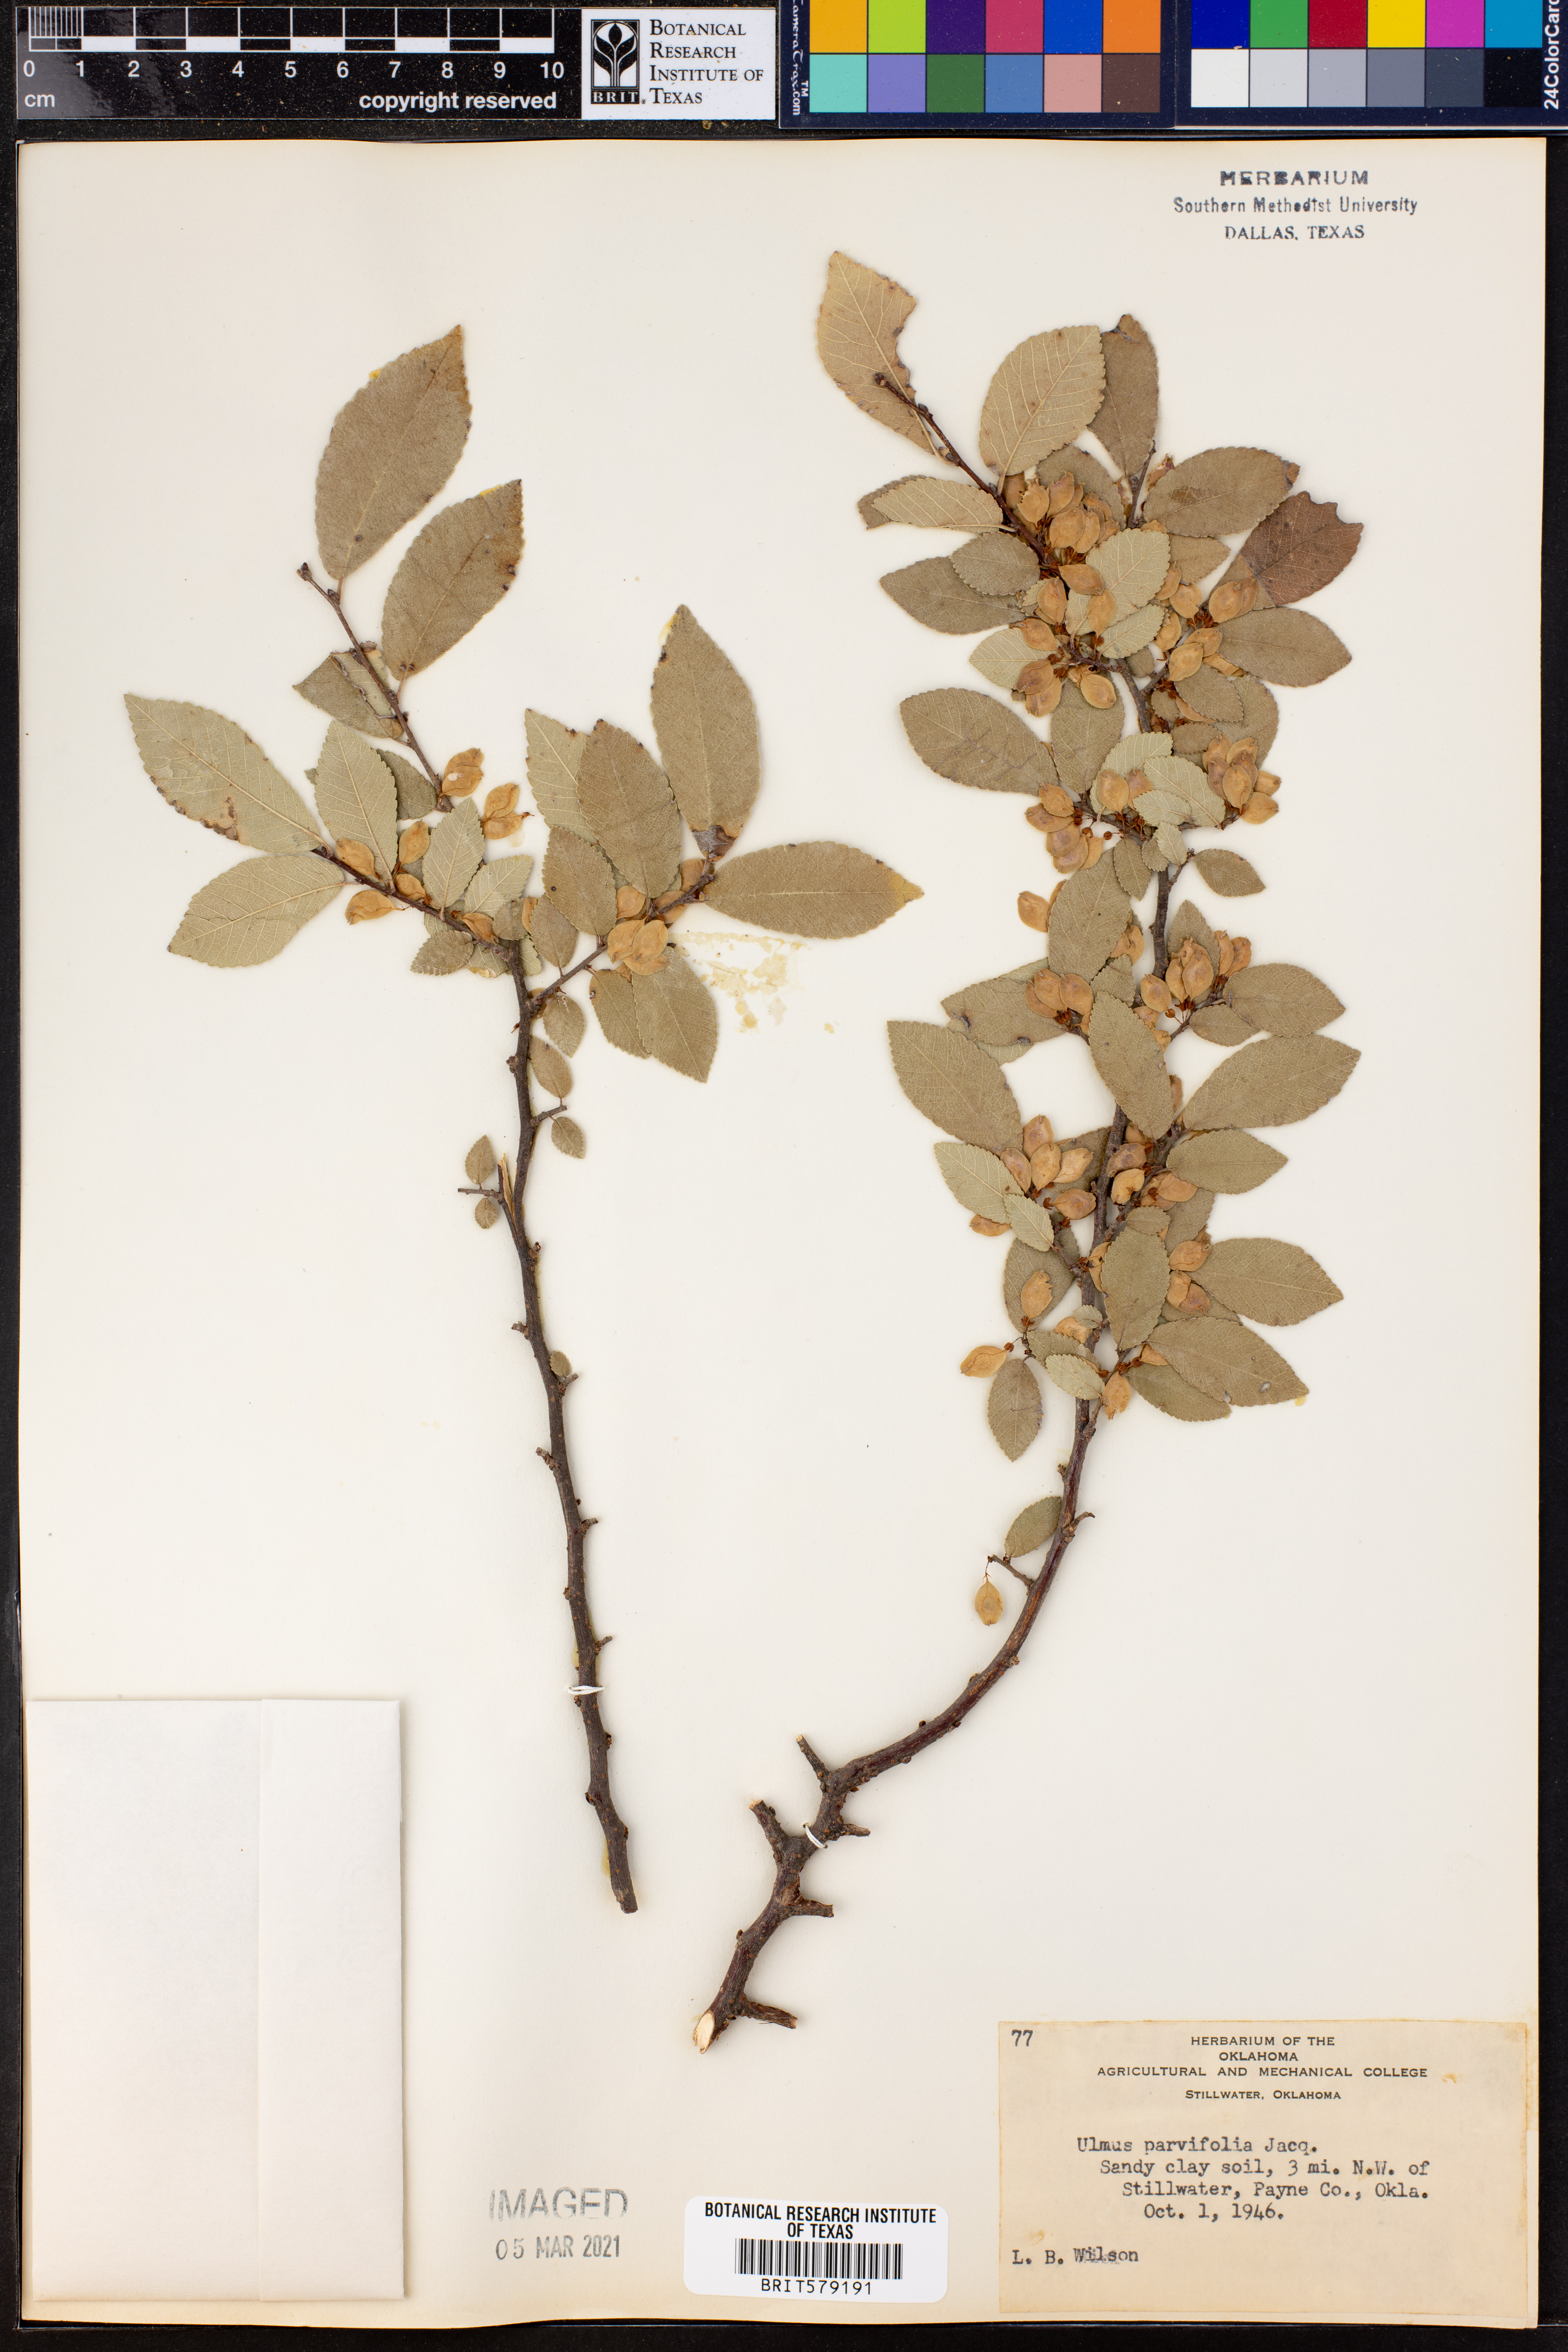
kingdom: Plantae
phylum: Tracheophyta
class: Magnoliopsida
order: Rosales
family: Ulmaceae
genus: Ulmus
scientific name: Ulmus parvifolia
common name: Chinese elm
